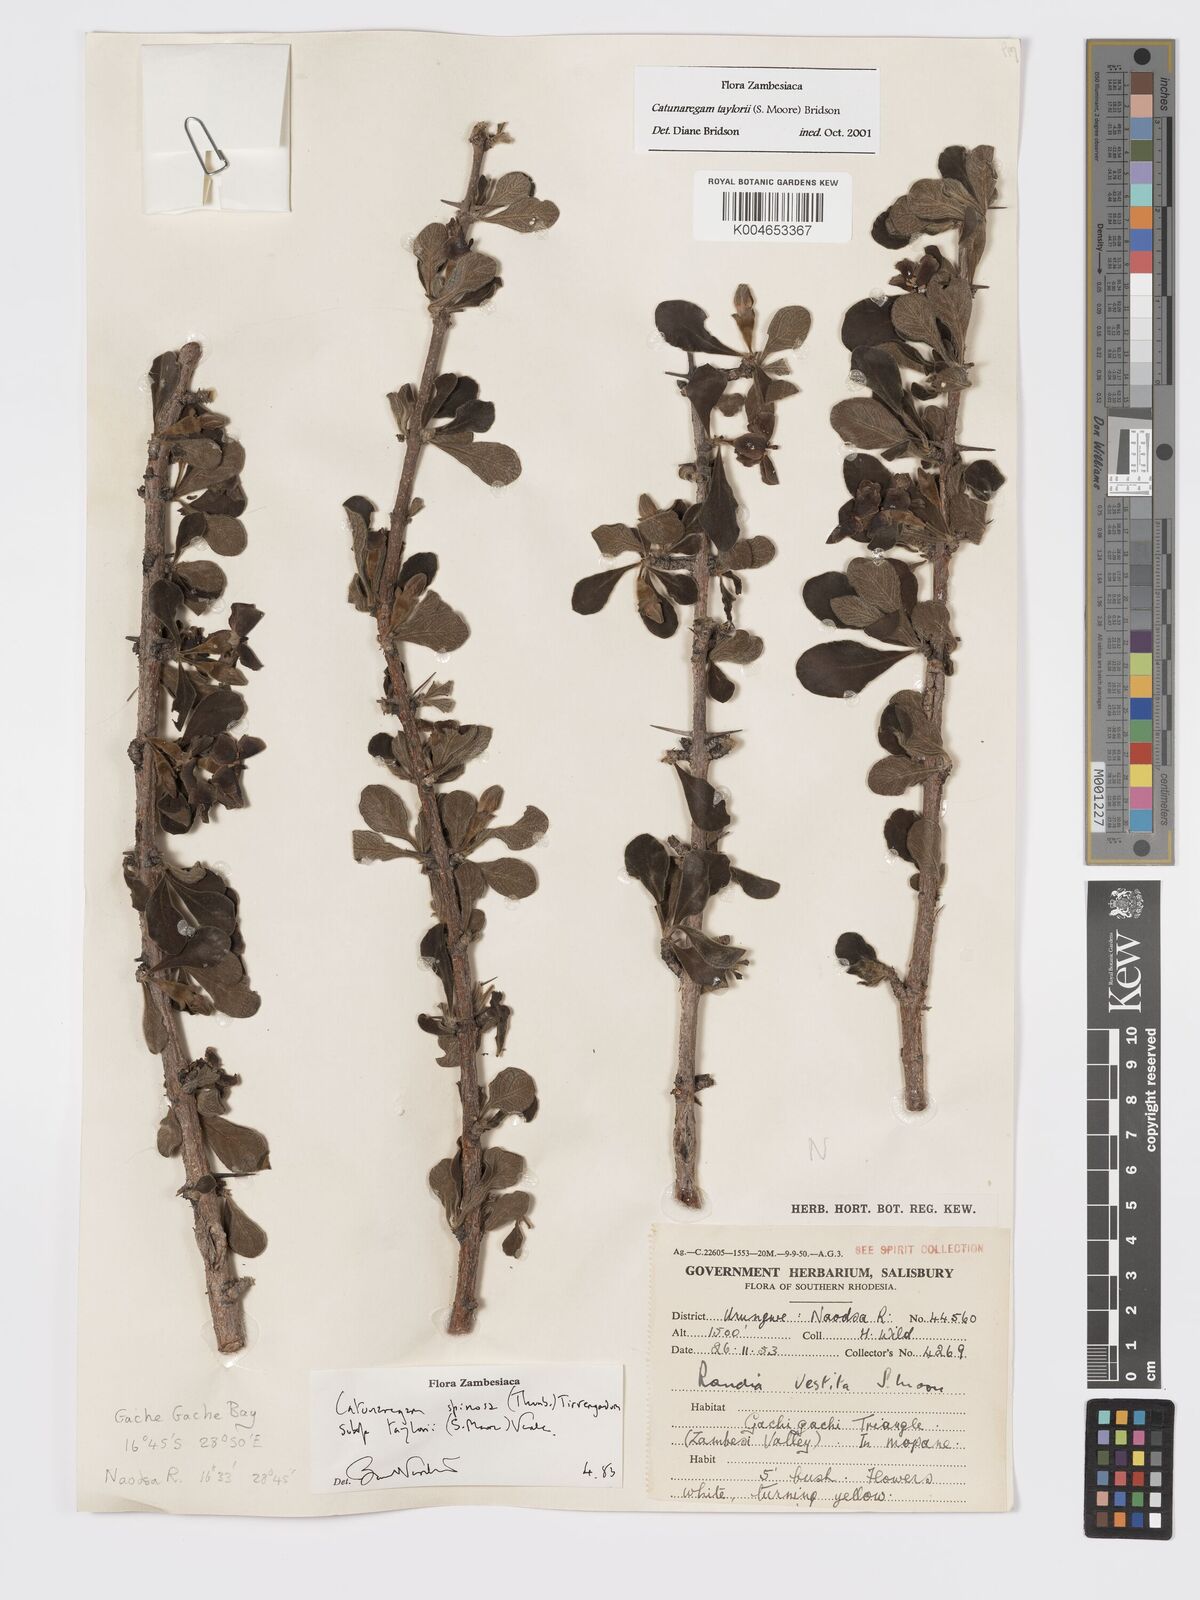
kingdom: Plantae
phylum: Tracheophyta
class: Magnoliopsida
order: Gentianales
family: Rubiaceae
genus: Catunaregam
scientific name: Catunaregam
